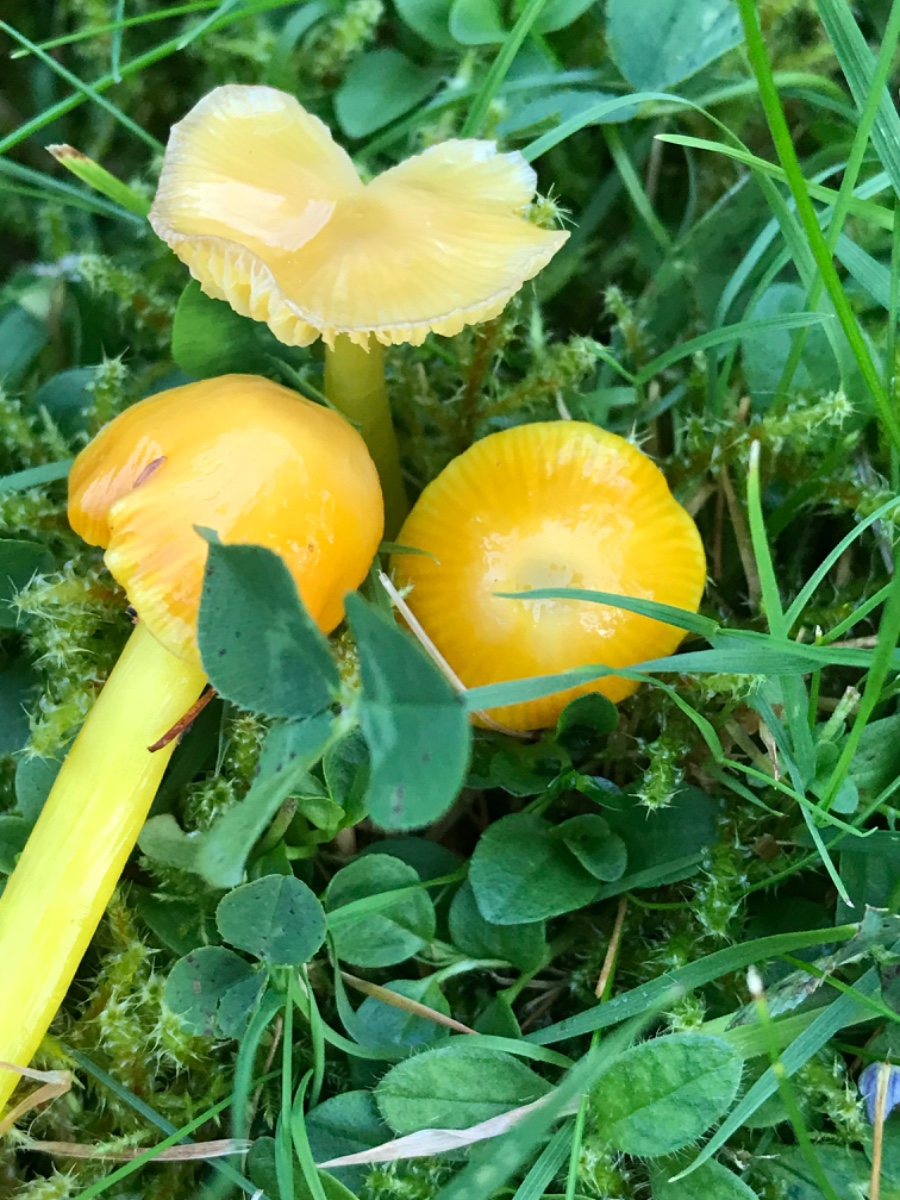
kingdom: Fungi
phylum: Basidiomycota
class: Agaricomycetes
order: Agaricales
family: Hygrophoraceae
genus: Hygrocybe
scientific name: Hygrocybe glutinipes
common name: slimstokket vokshat
